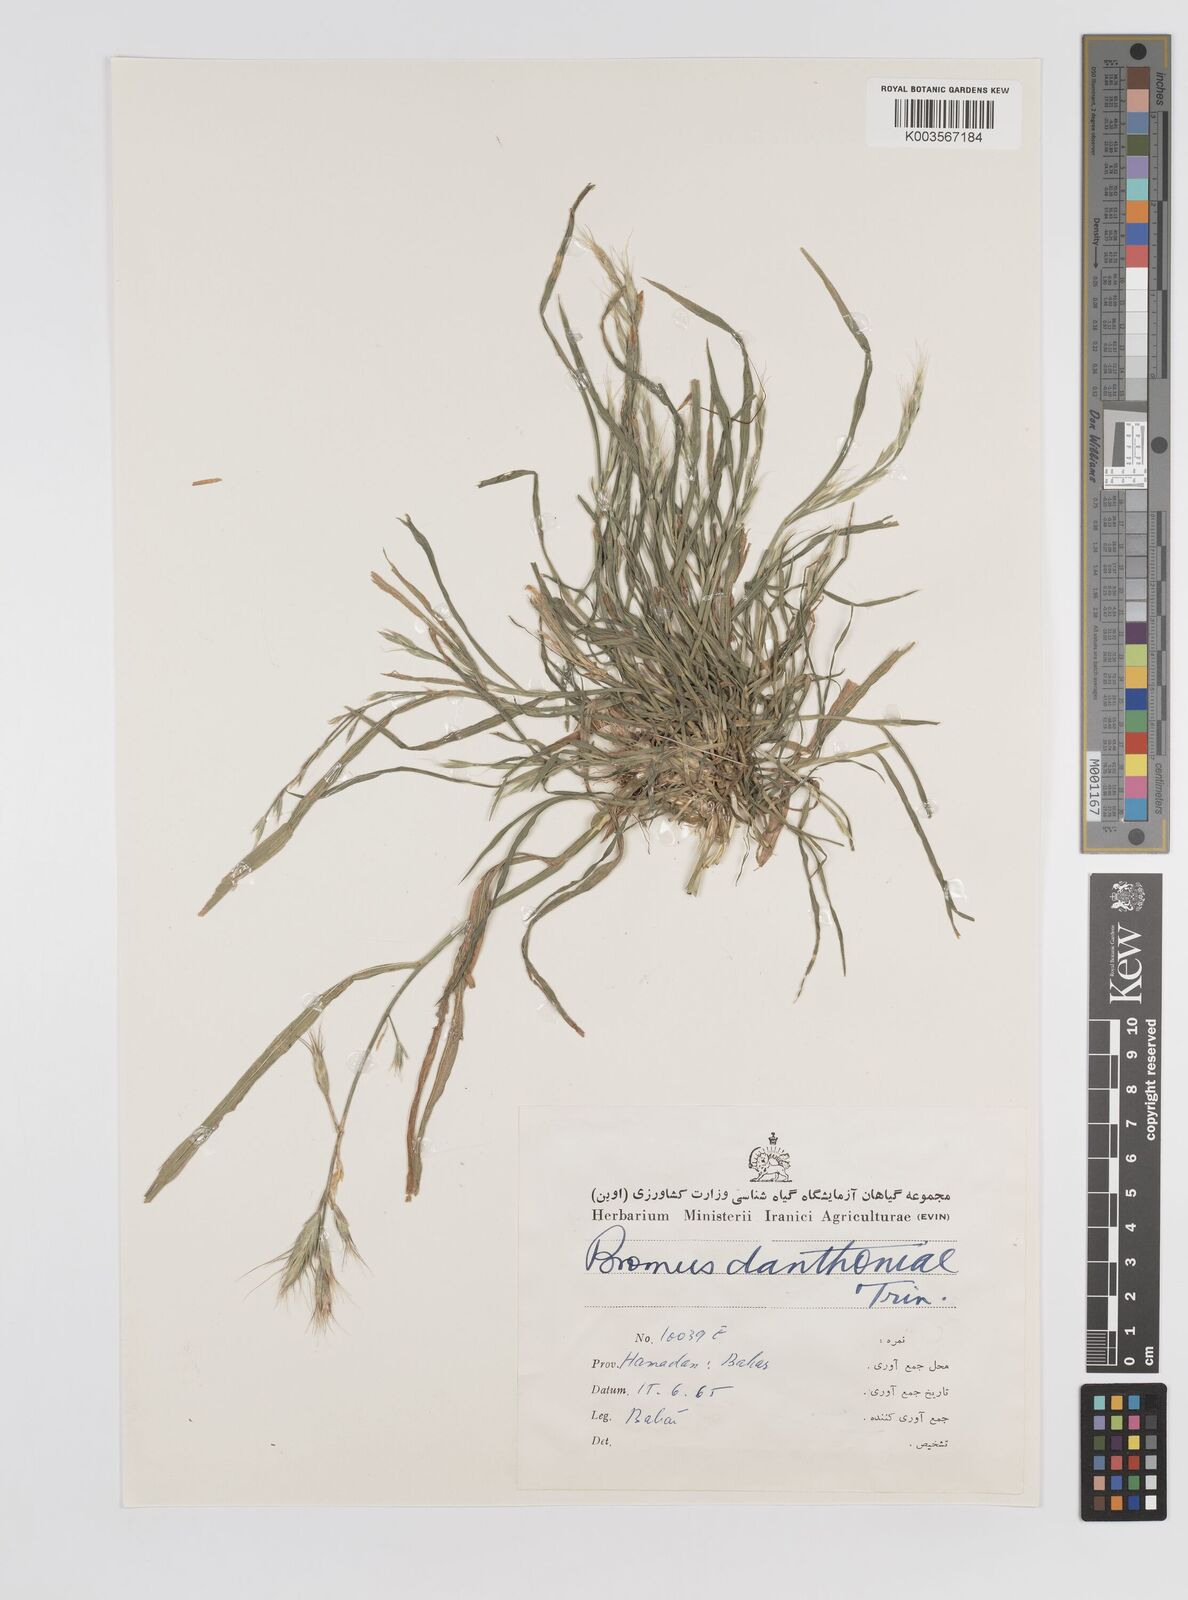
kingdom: Plantae
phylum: Tracheophyta
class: Liliopsida
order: Poales
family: Poaceae
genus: Bromus
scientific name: Bromus danthoniae
